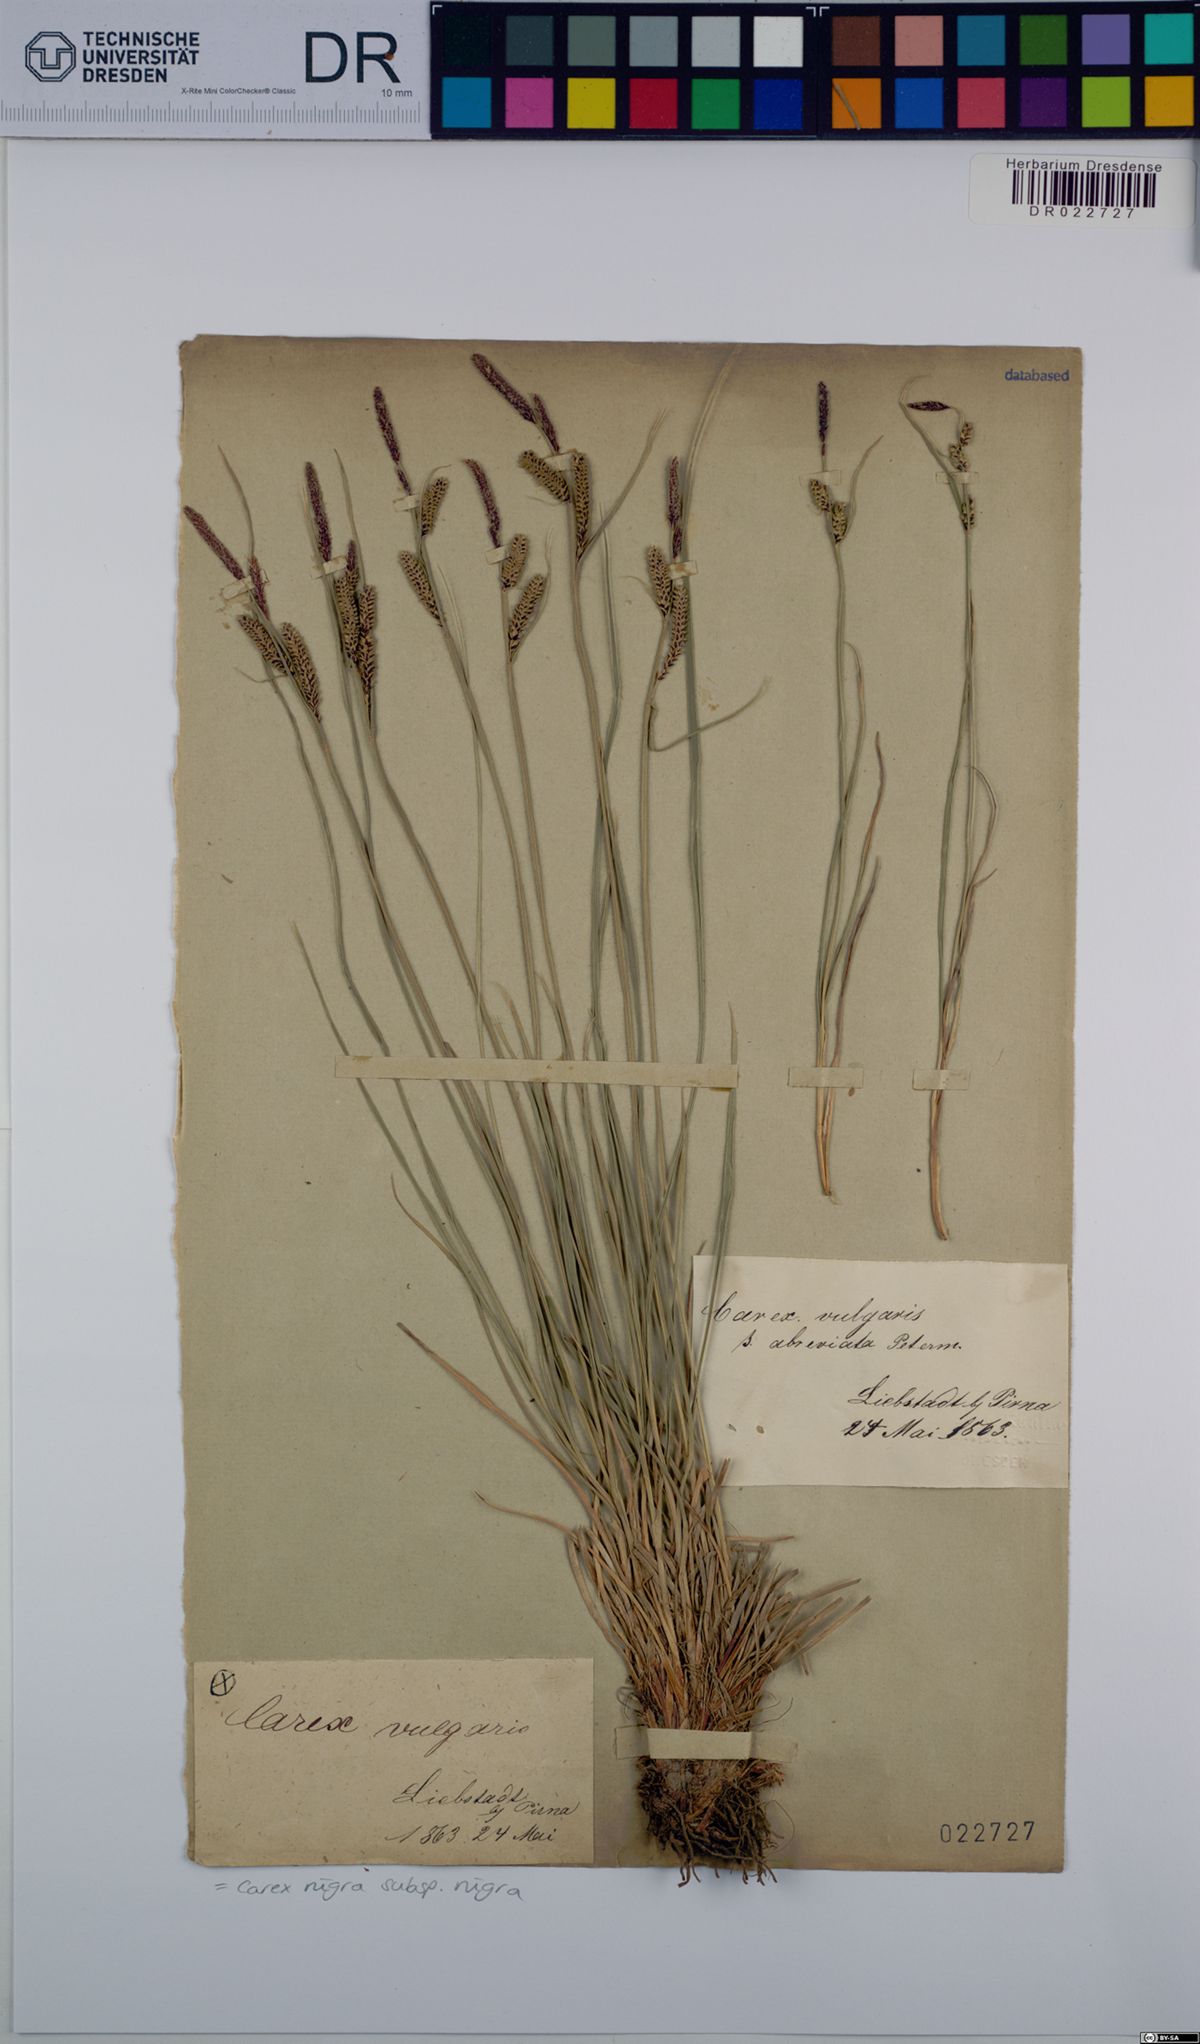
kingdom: Plantae
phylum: Tracheophyta
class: Liliopsida
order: Poales
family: Cyperaceae
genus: Carex
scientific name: Carex nigra
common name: Common sedge
